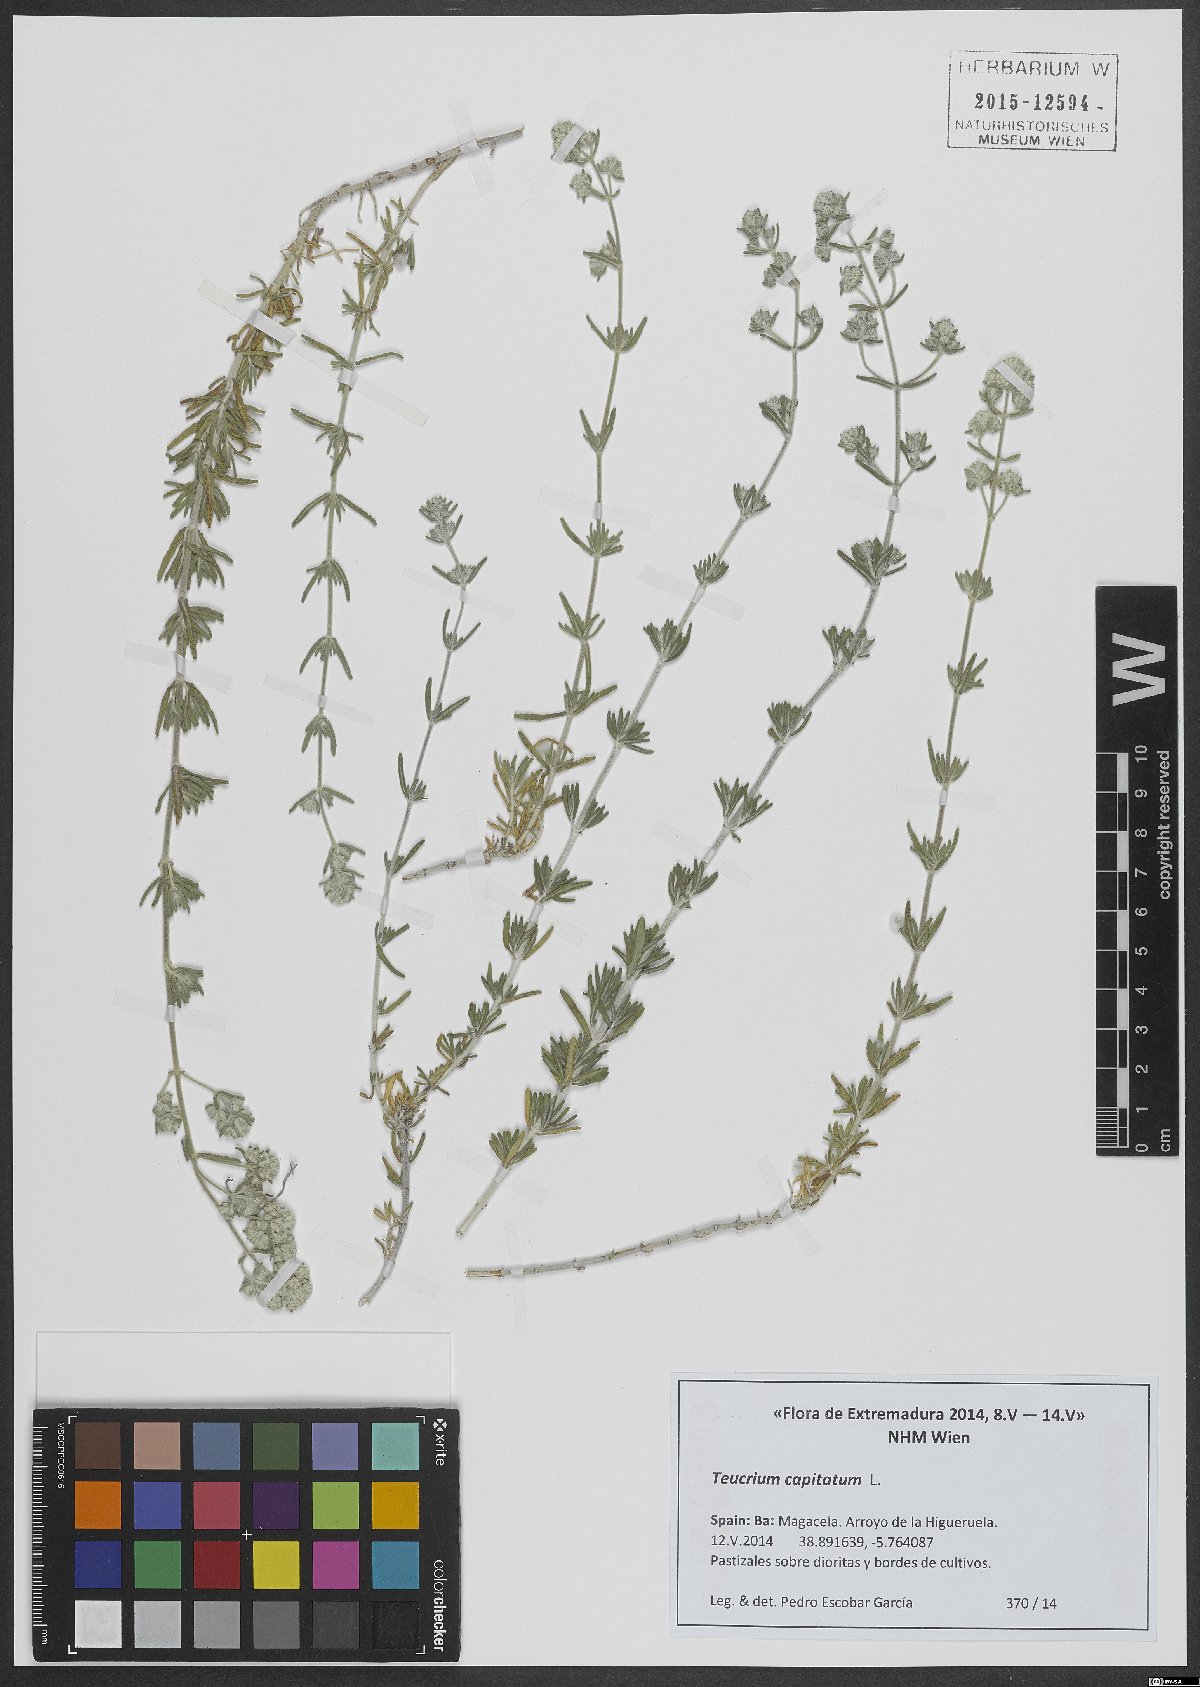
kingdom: Plantae
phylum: Tracheophyta
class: Magnoliopsida
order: Lamiales
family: Lamiaceae
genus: Teucrium
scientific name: Teucrium capitatum
